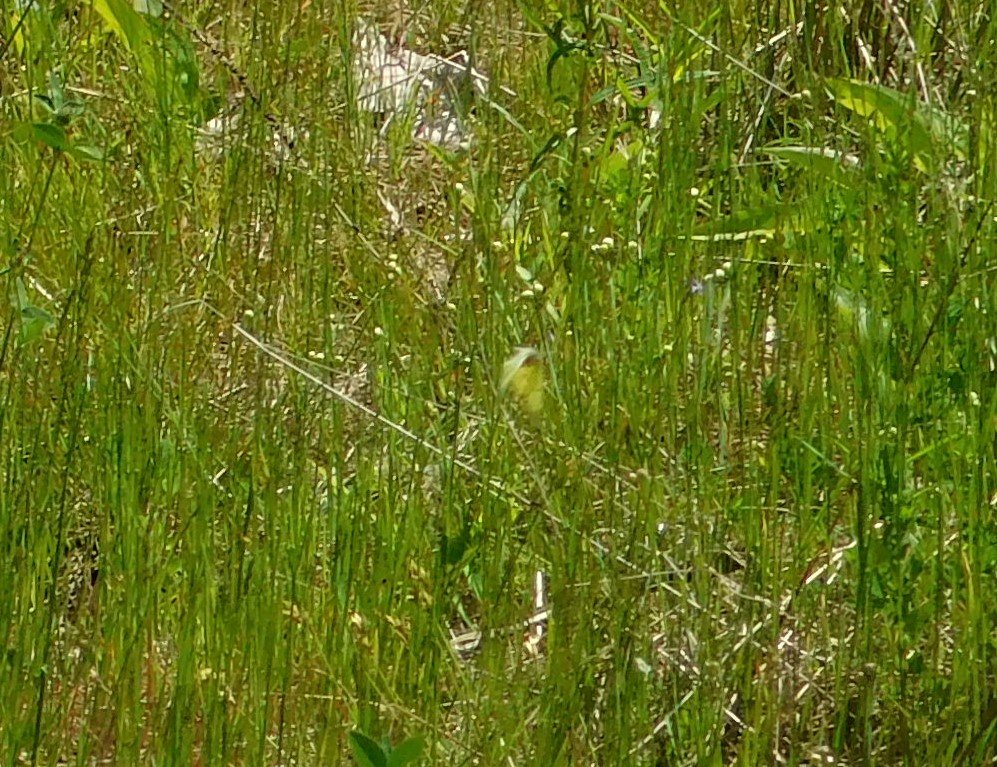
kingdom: Animalia
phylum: Arthropoda
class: Insecta
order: Lepidoptera
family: Pieridae
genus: Colias
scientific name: Colias philodice
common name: Clouded Sulphur
